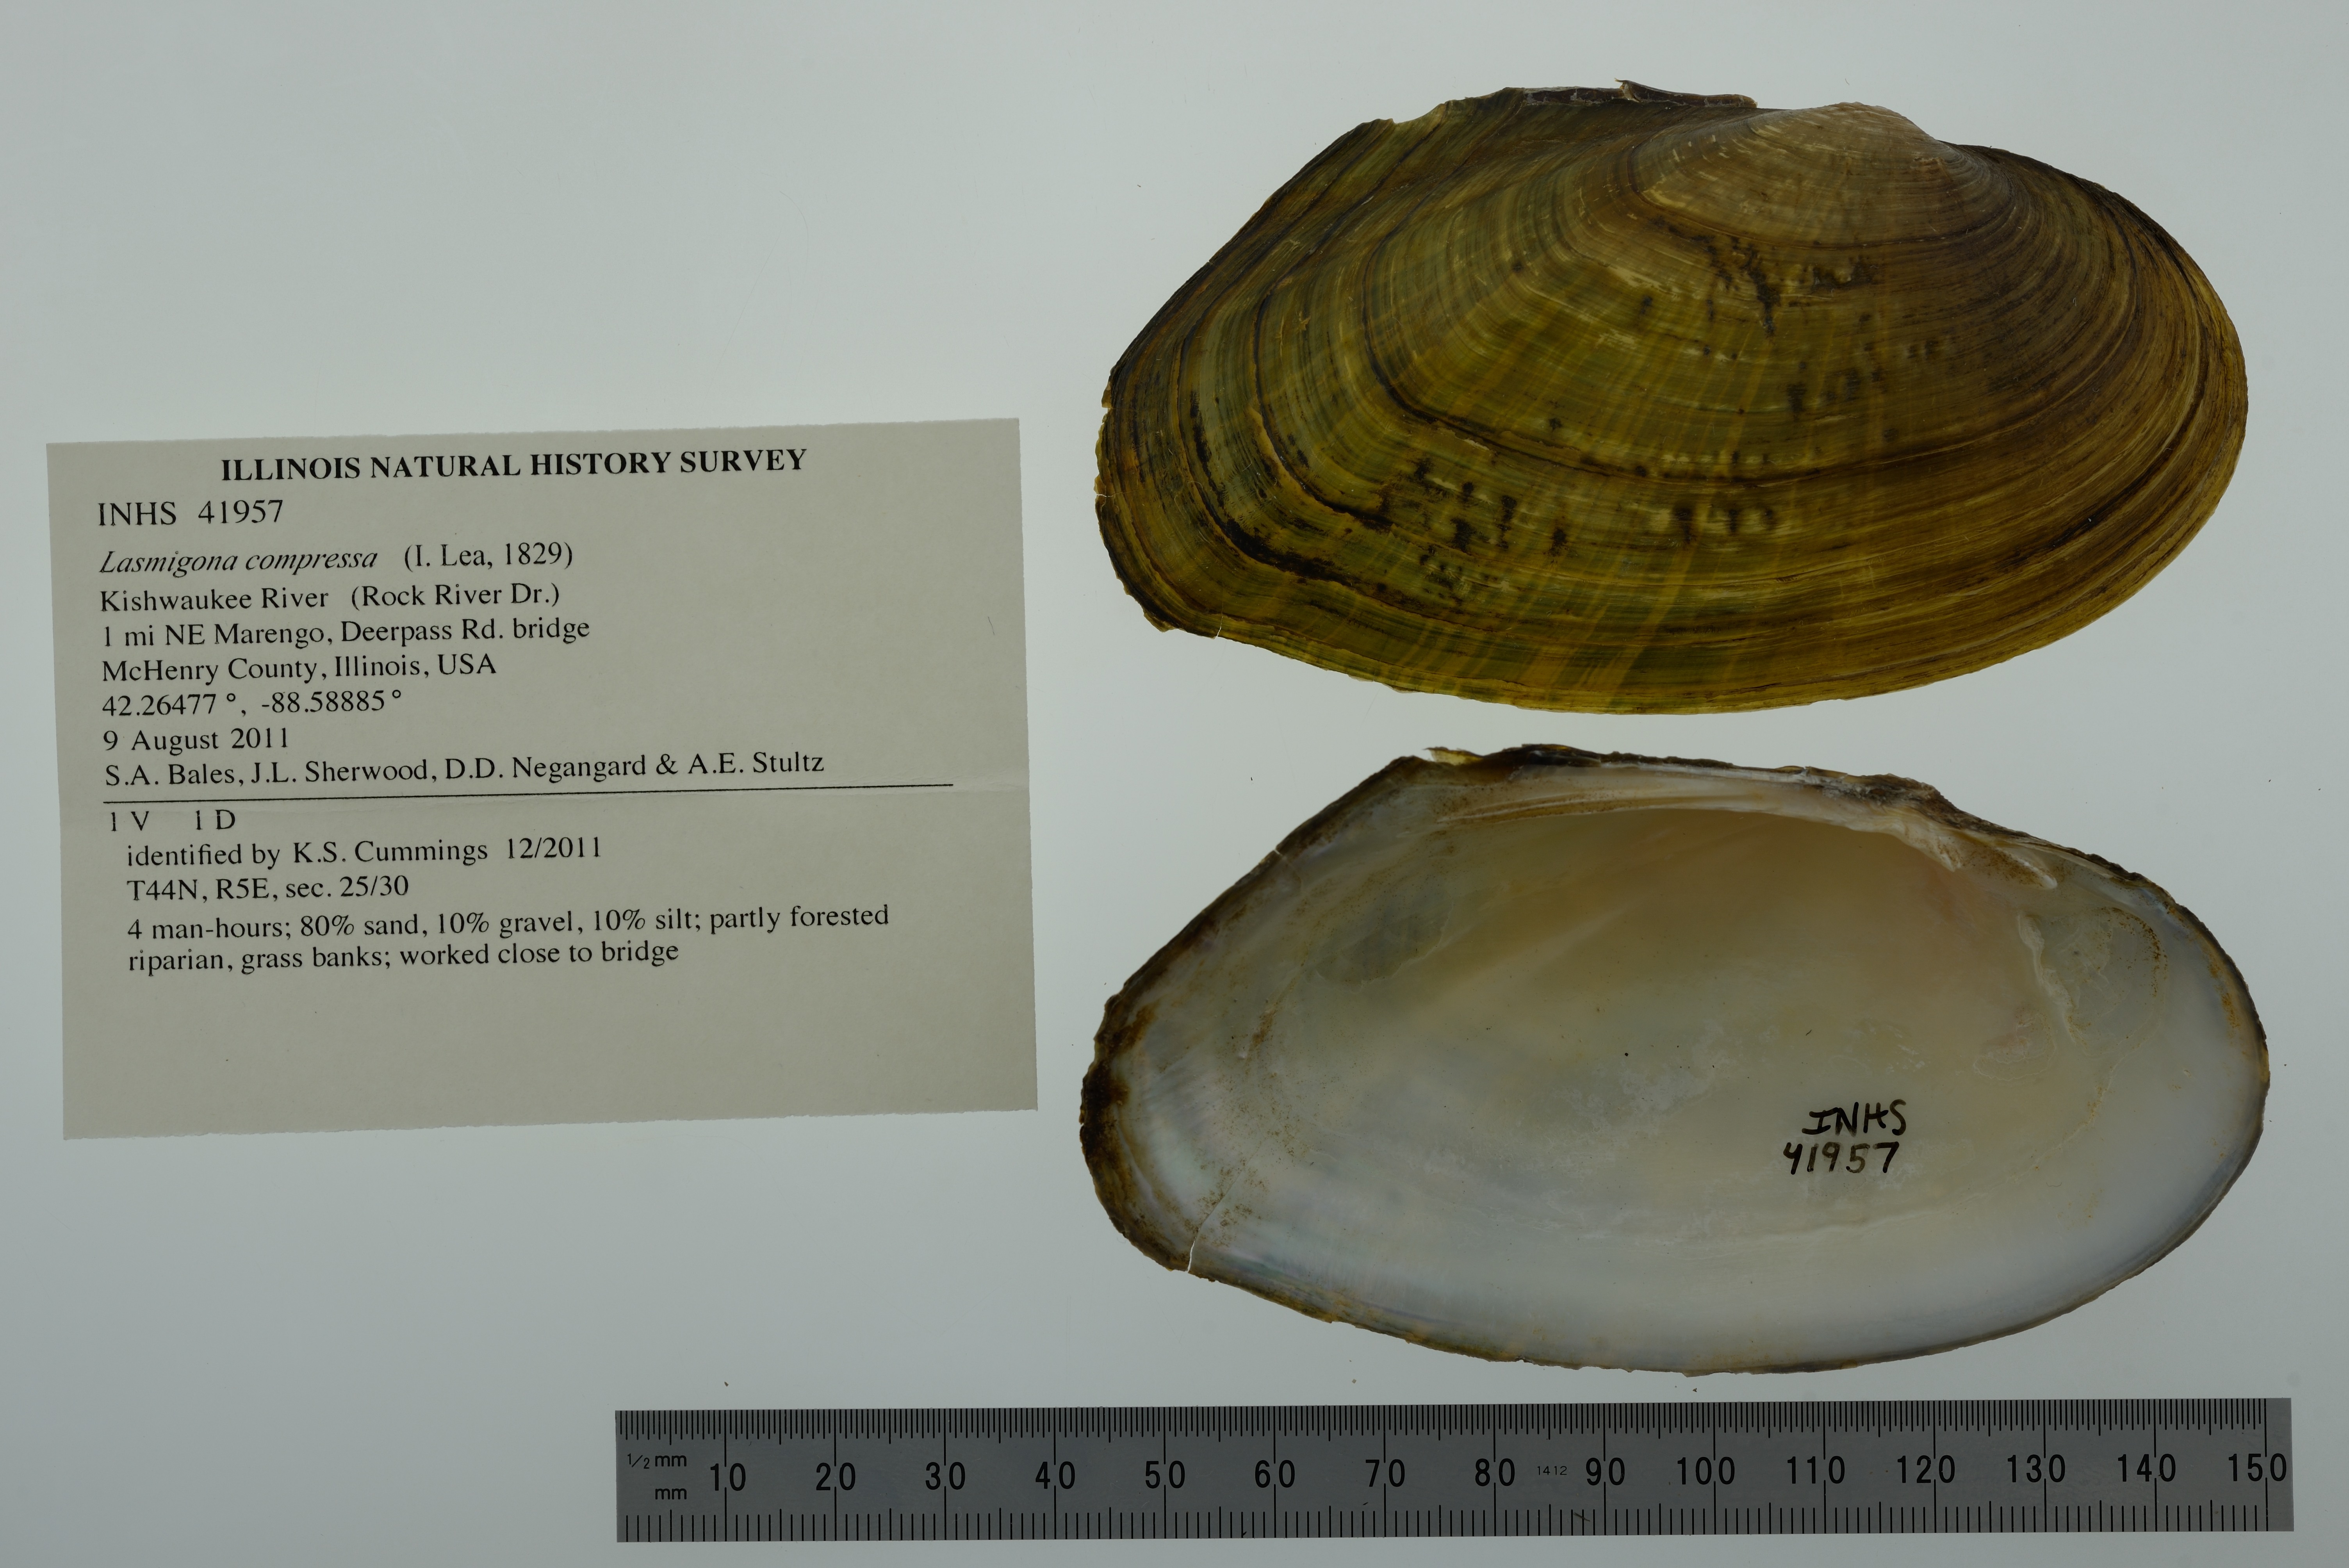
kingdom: Animalia
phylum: Mollusca
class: Bivalvia
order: Unionida
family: Unionidae
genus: Lasmigona
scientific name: Lasmigona compressa
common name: Creek heelsplitter
